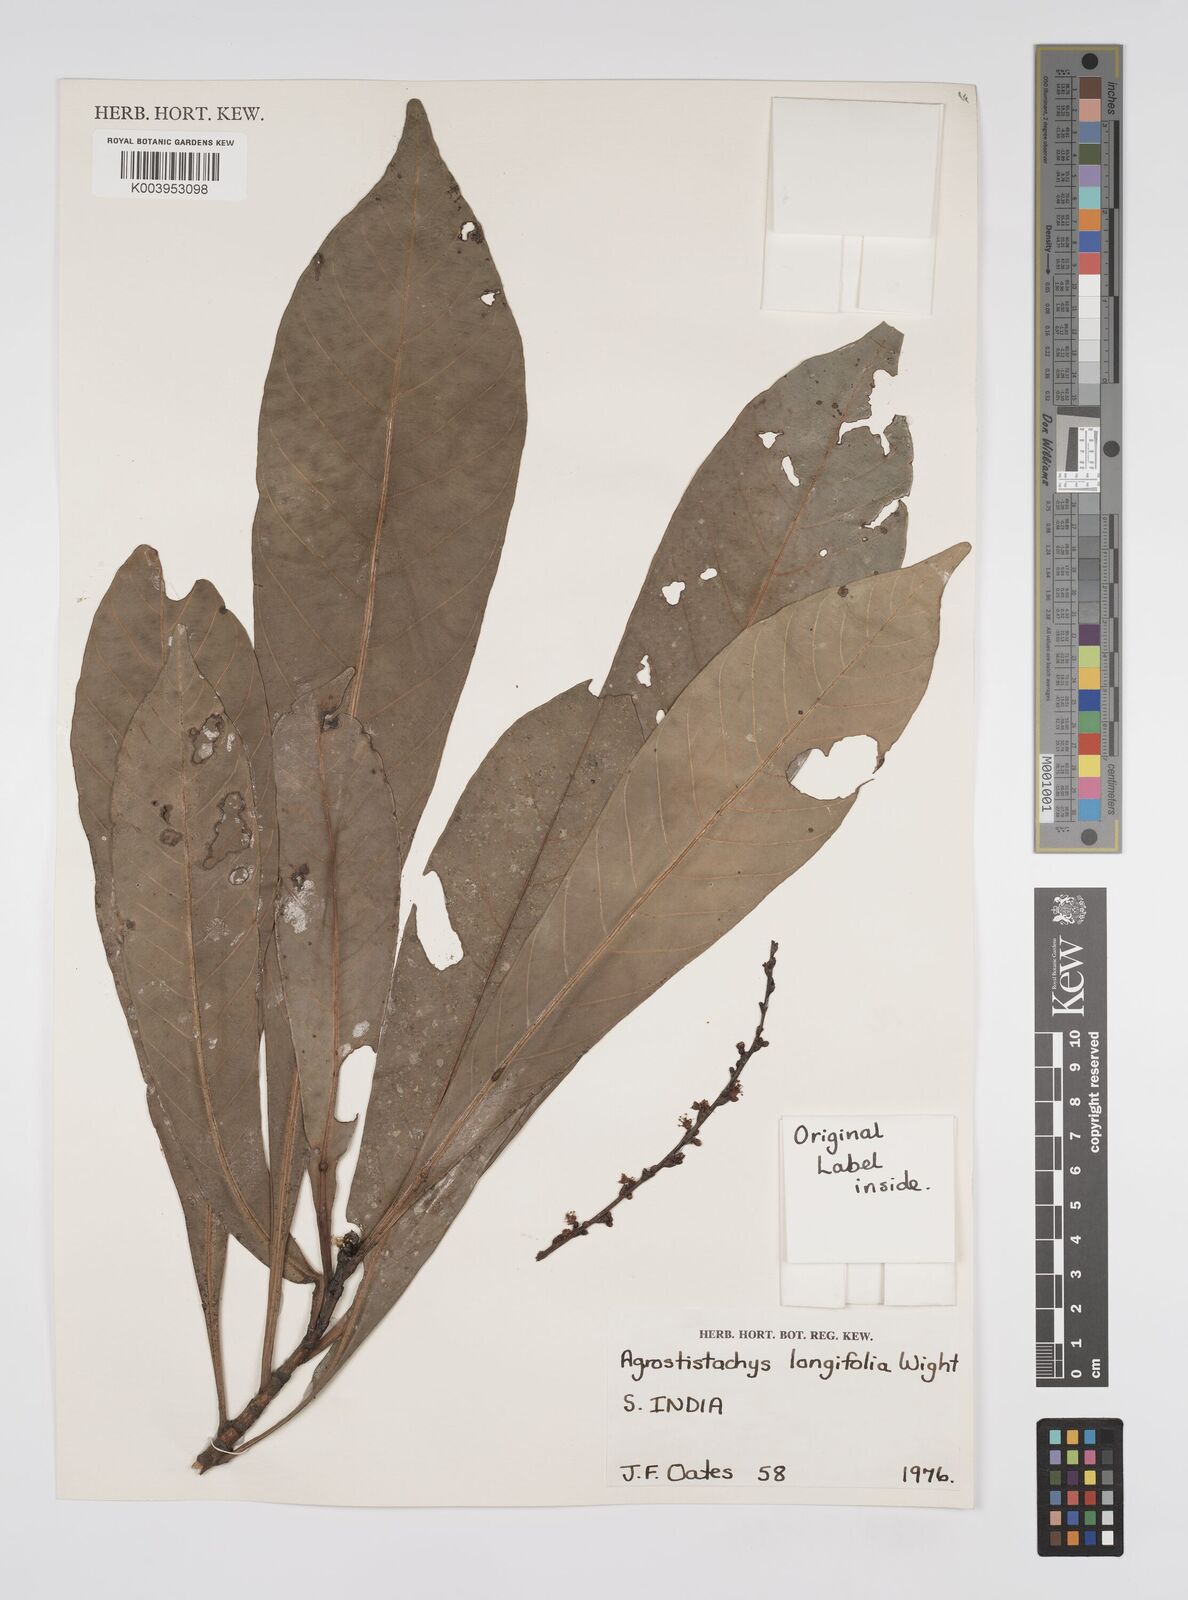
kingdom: Plantae
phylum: Tracheophyta
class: Magnoliopsida
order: Malpighiales
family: Euphorbiaceae
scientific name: Euphorbiaceae
